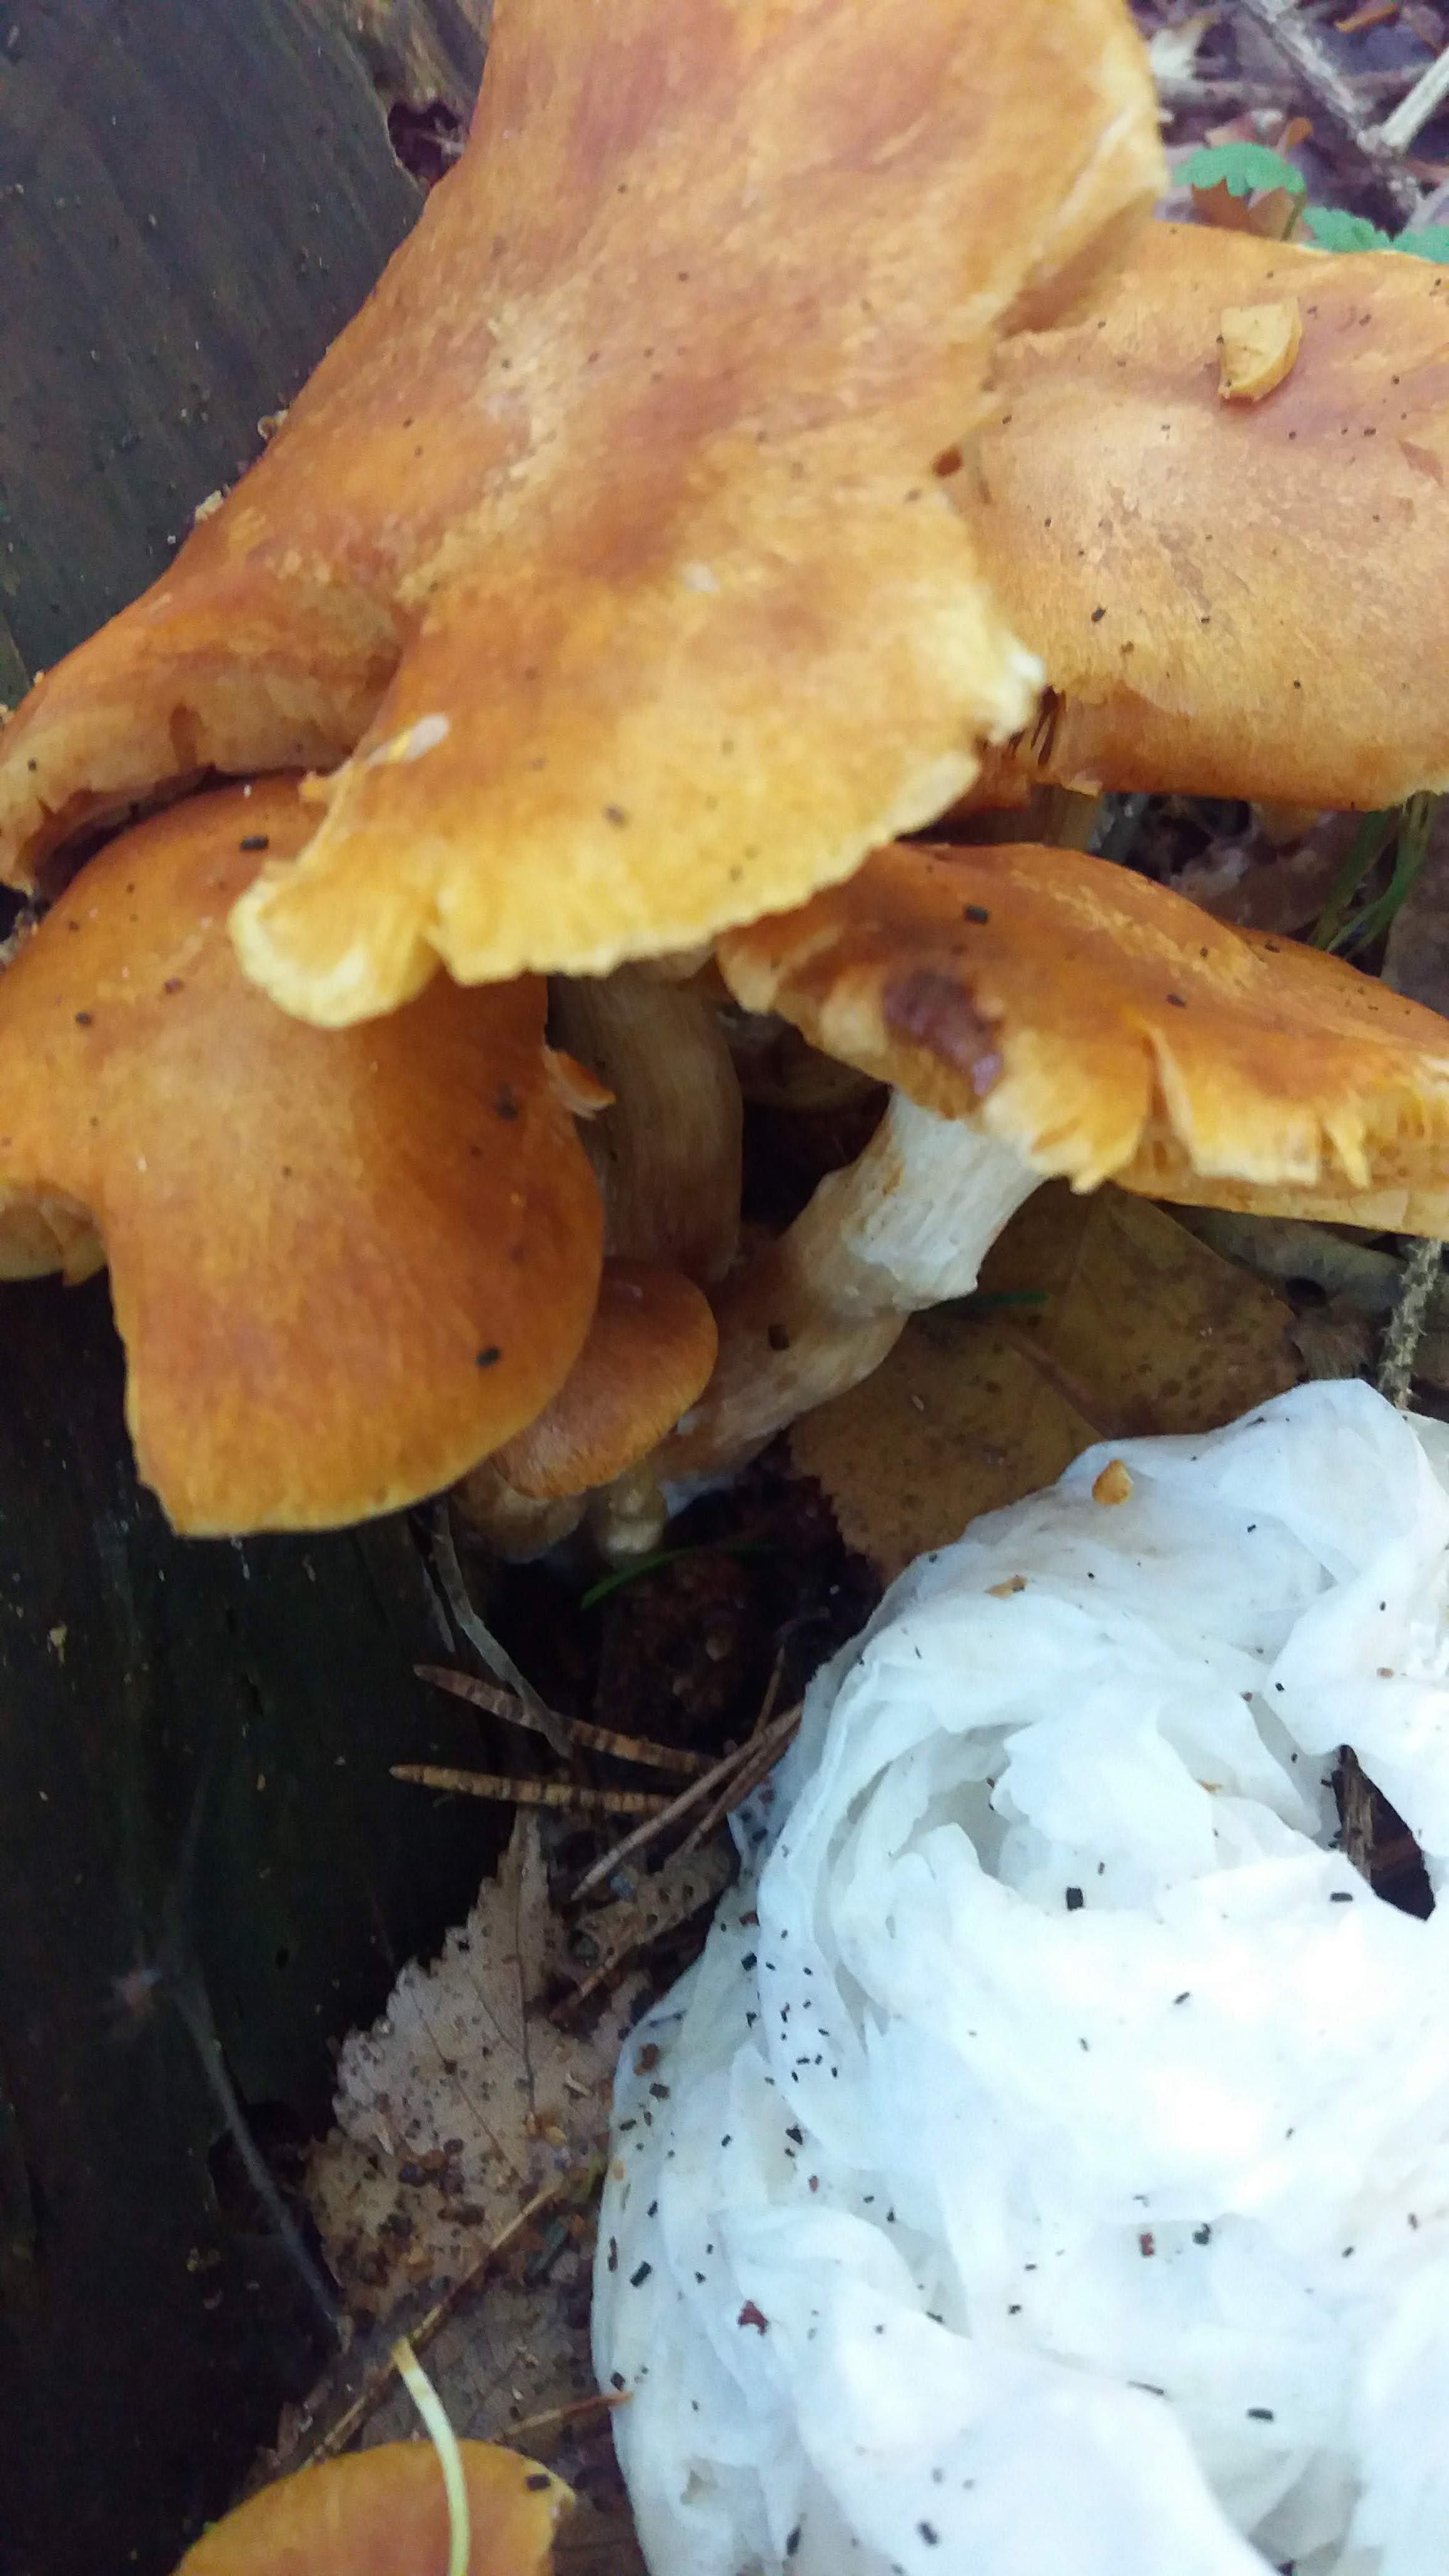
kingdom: Fungi
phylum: Basidiomycota
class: Agaricomycetes
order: Agaricales
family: Hymenogastraceae
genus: Gymnopilus
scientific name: Gymnopilus spectabilis
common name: fibret flammehat
